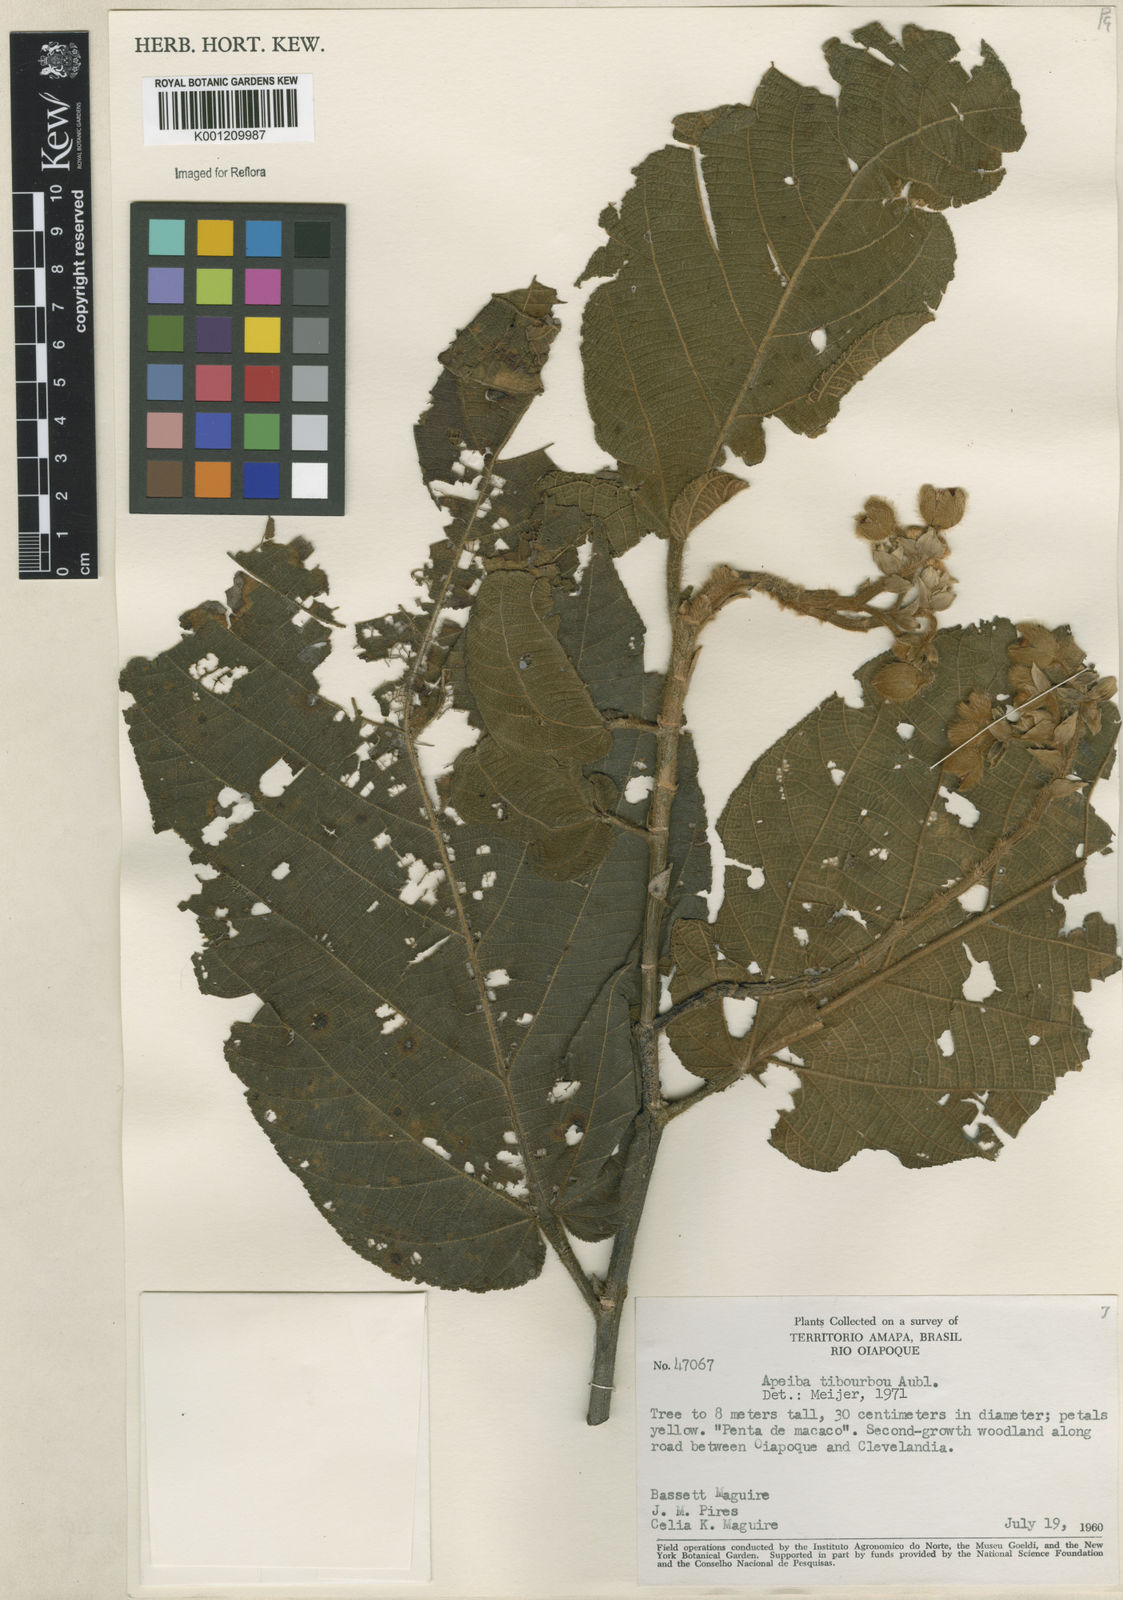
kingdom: Plantae
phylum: Tracheophyta
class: Magnoliopsida
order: Malvales
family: Malvaceae
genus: Apeiba
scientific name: Apeiba tibourbou
